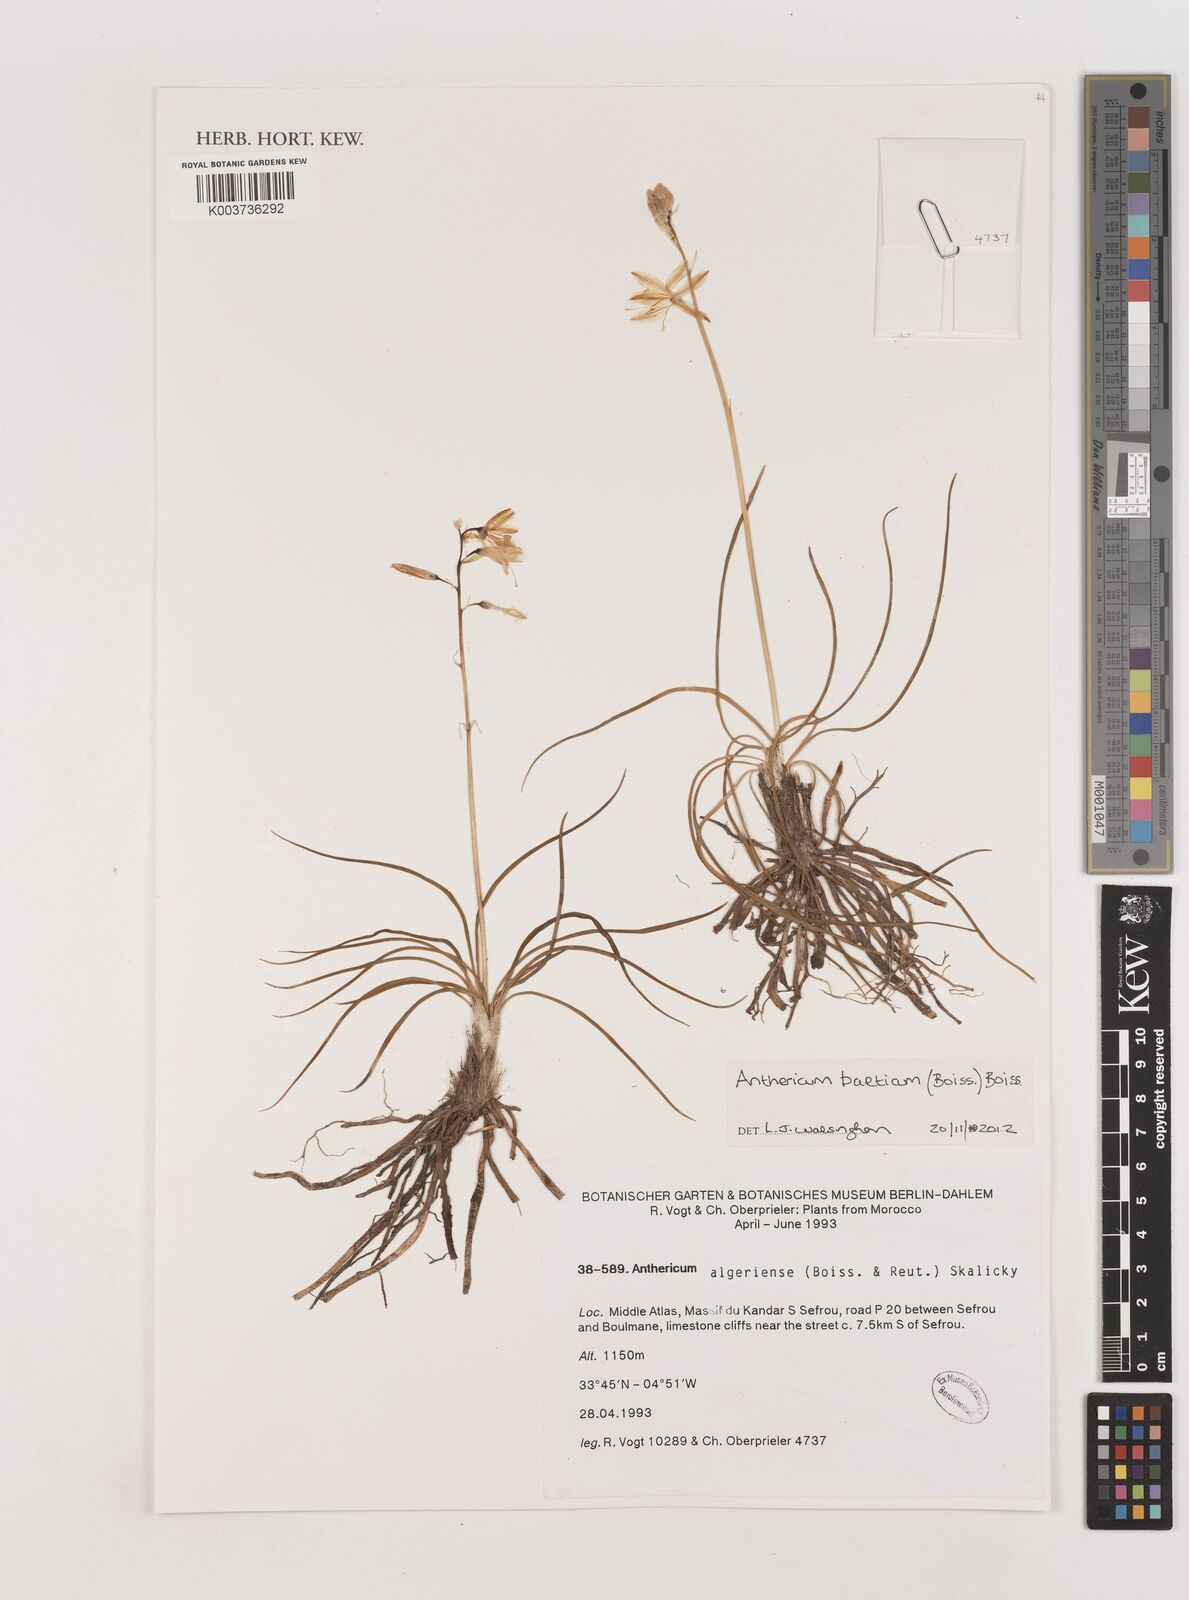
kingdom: Plantae
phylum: Tracheophyta
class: Liliopsida
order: Asparagales
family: Asparagaceae
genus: Anthericum
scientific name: Anthericum liliago
